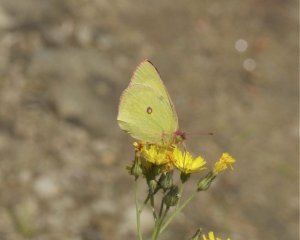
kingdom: Animalia
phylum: Arthropoda
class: Insecta
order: Lepidoptera
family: Pieridae
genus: Colias
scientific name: Colias interior
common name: Pink-edged Sulphur
